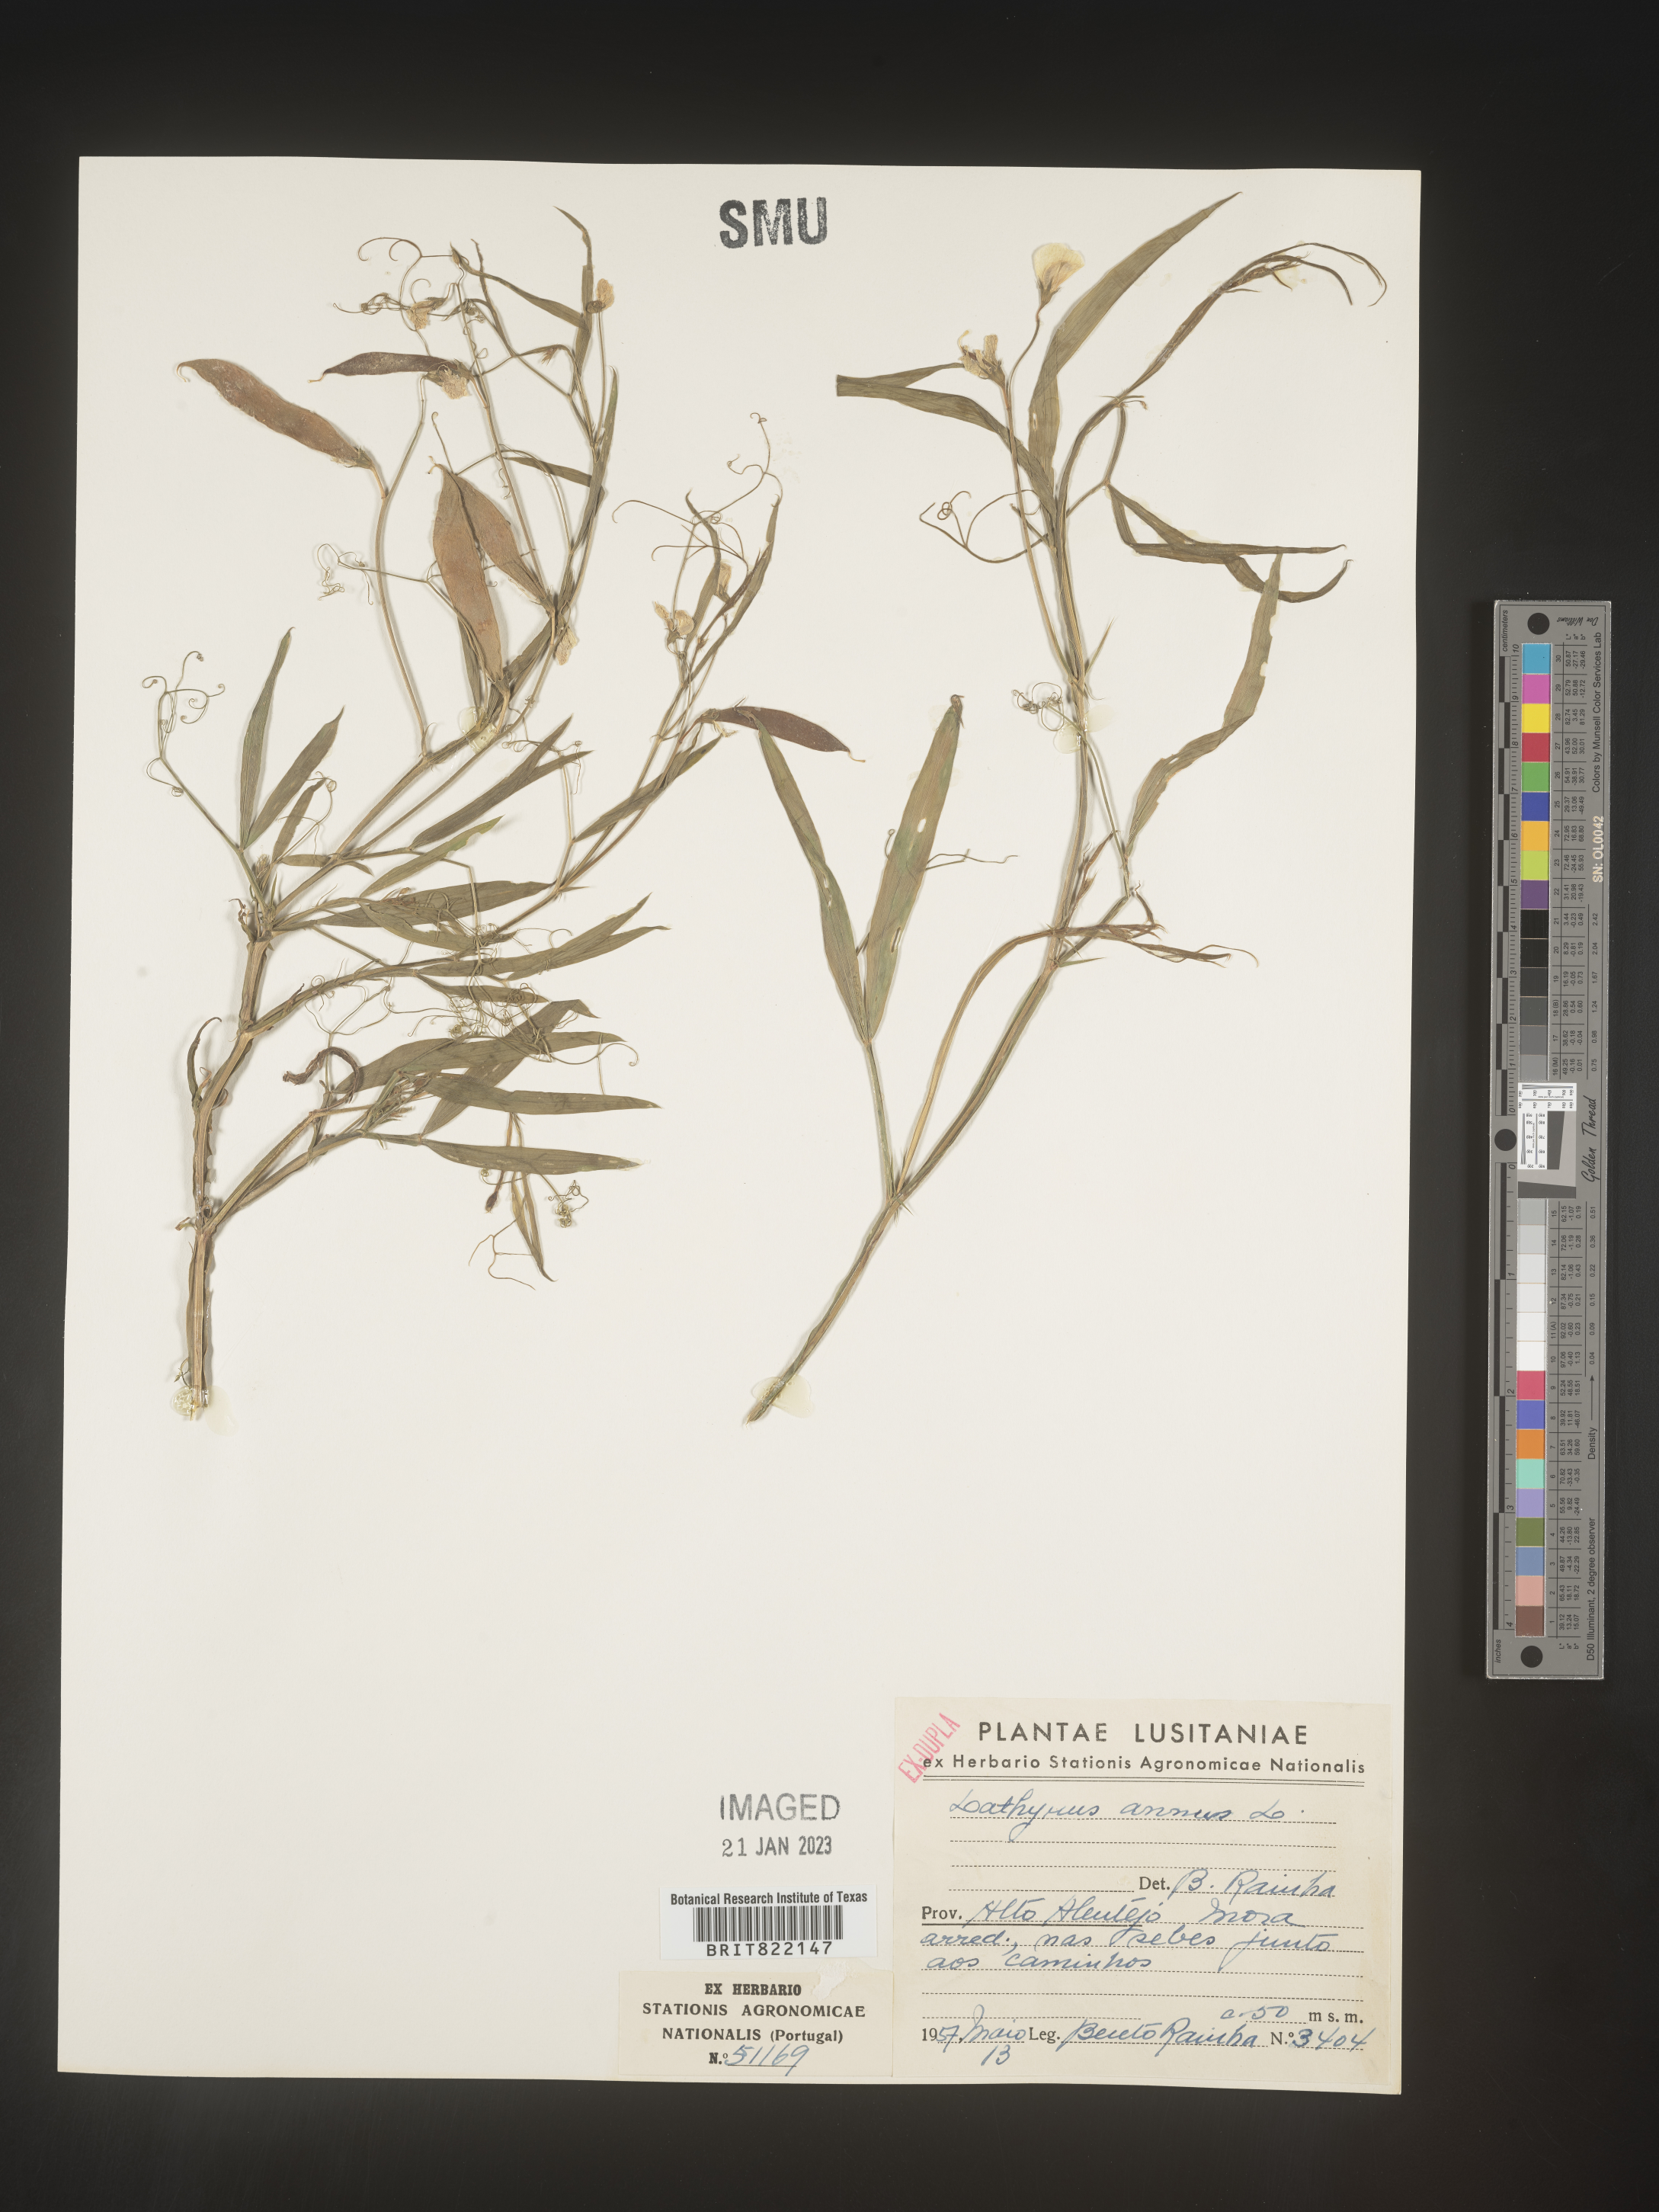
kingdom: Plantae
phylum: Tracheophyta
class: Magnoliopsida
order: Fabales
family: Fabaceae
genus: Lathyrus
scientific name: Lathyrus
